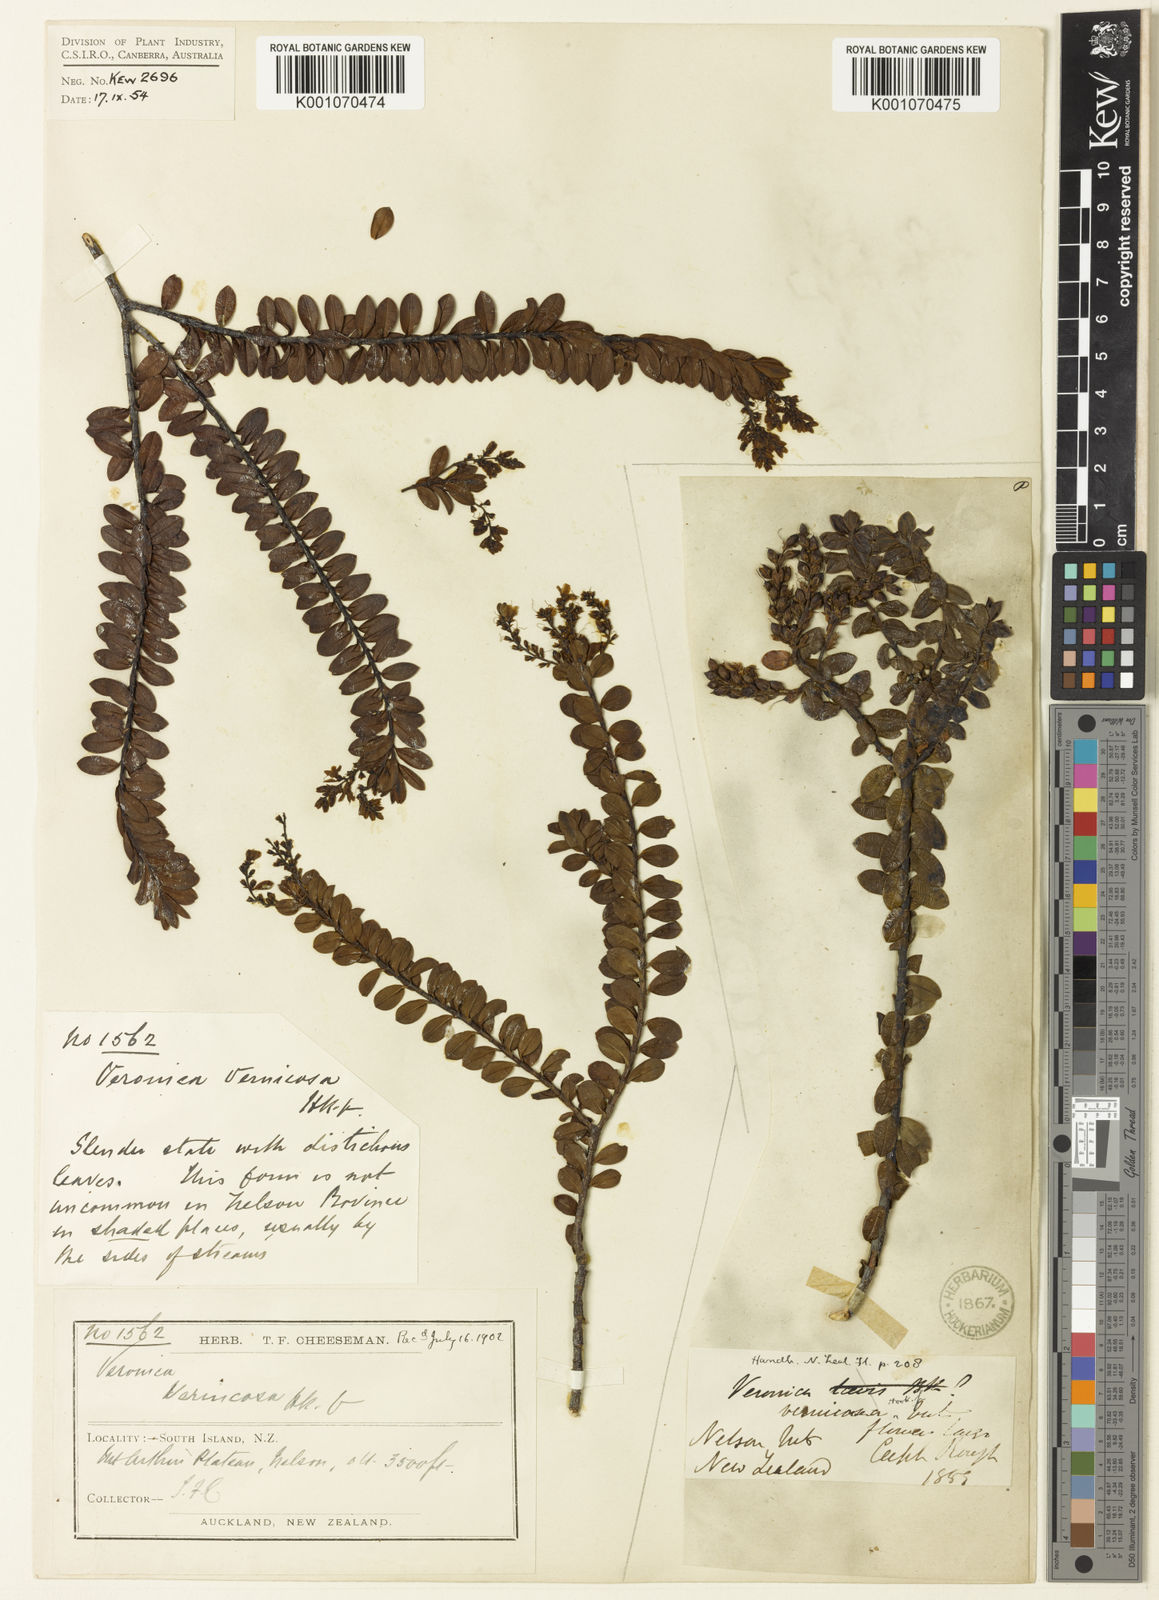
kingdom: Plantae
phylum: Tracheophyta
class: Magnoliopsida
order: Lamiales
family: Plantaginaceae
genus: Veronica
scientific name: Veronica vernicosa
